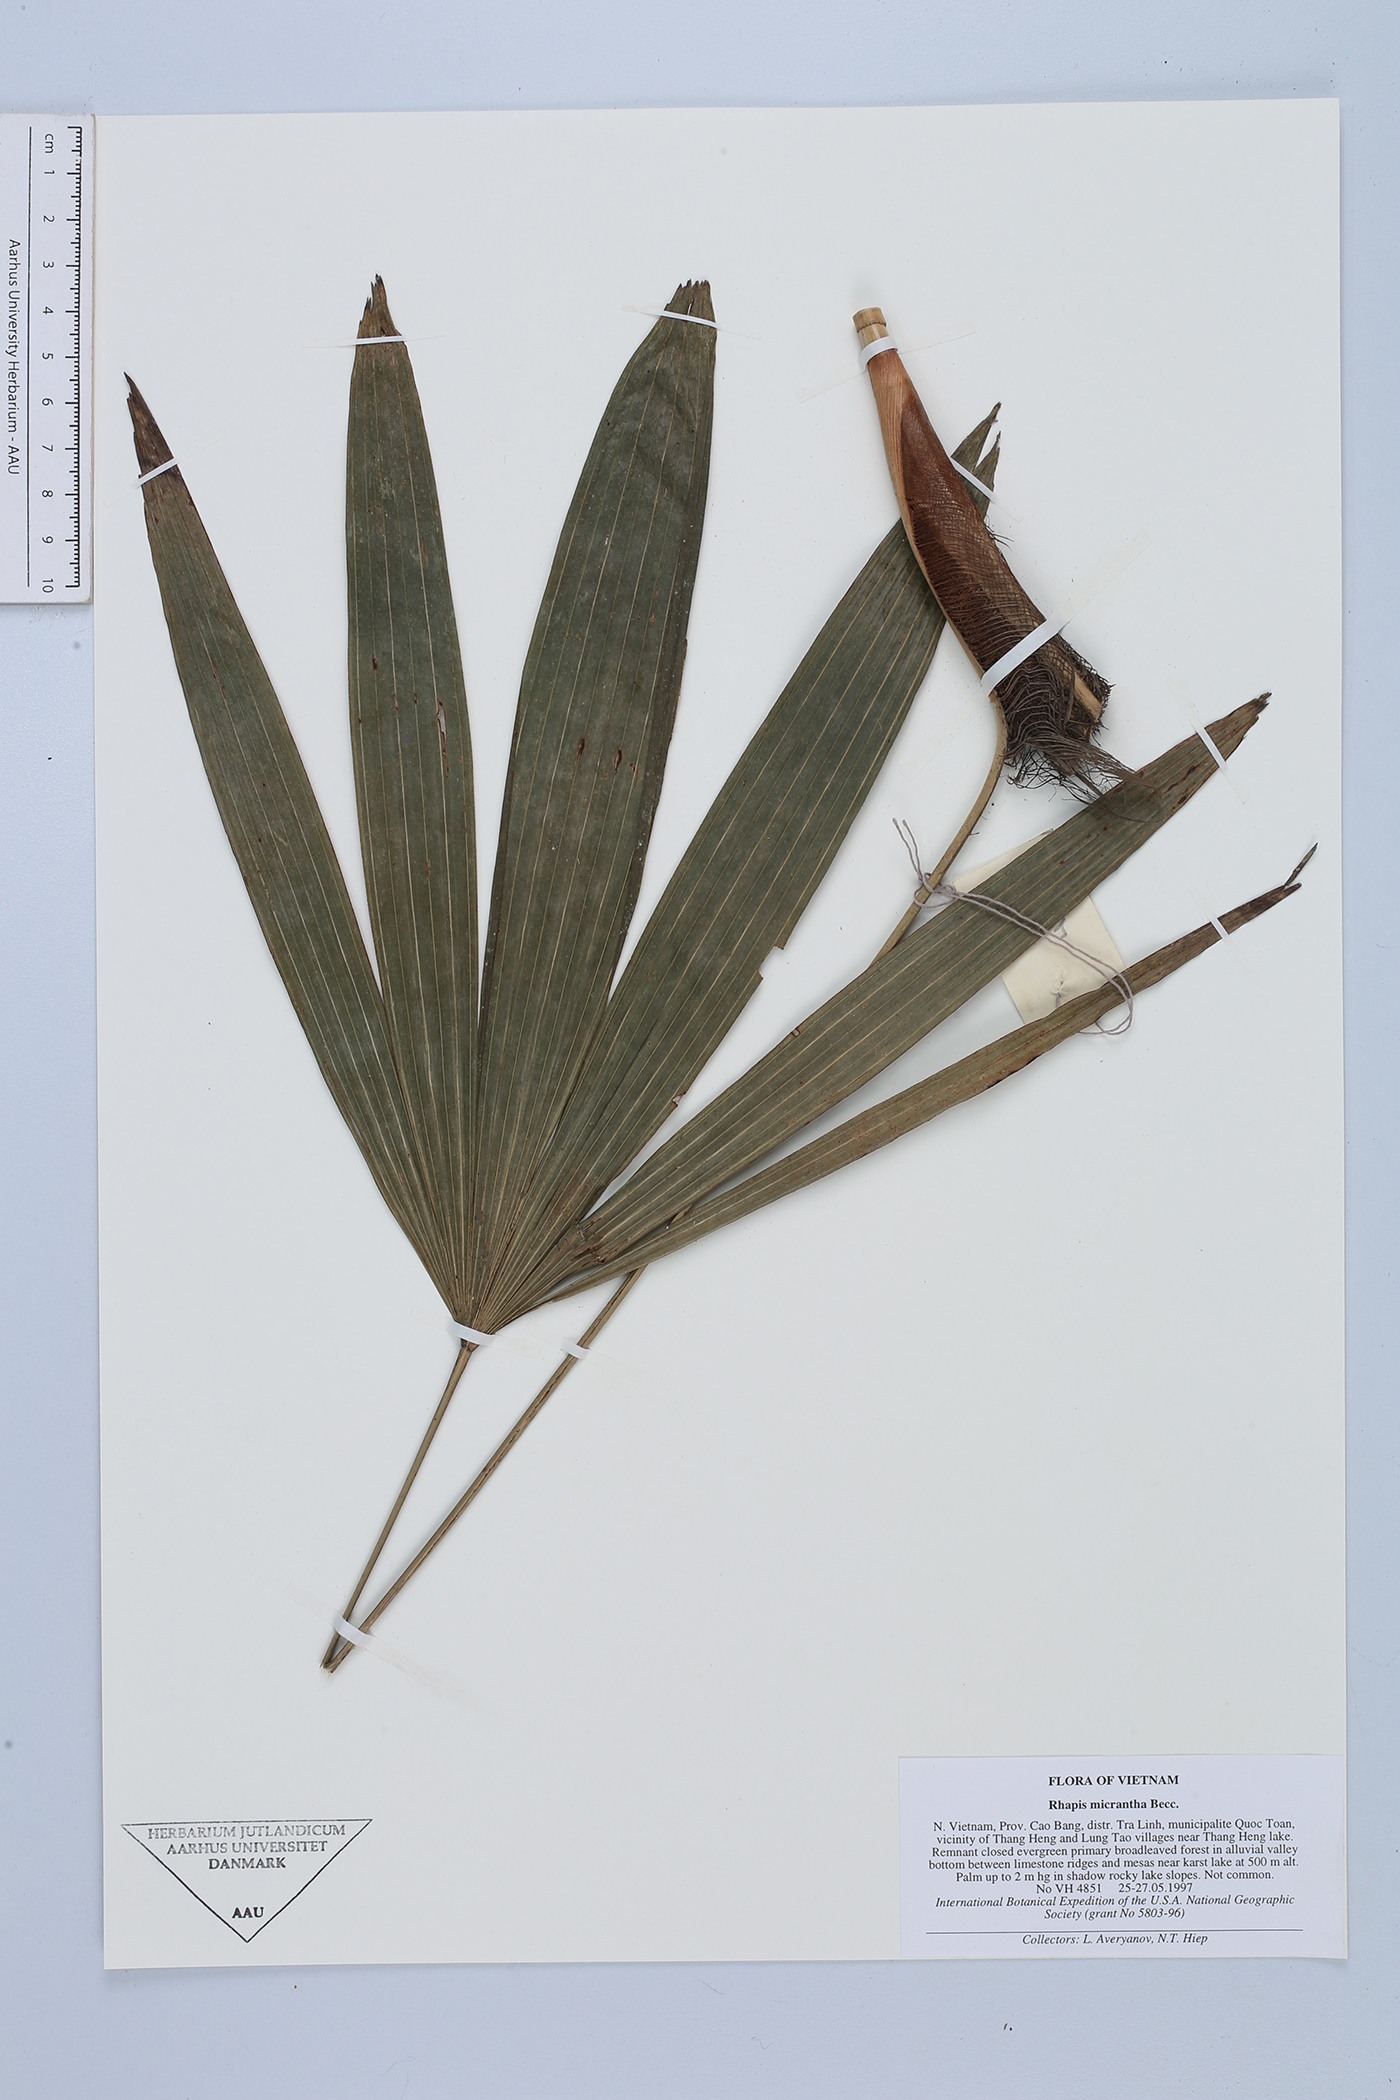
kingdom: Plantae
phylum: Tracheophyta
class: Liliopsida
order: Arecales
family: Arecaceae
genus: Rhapis
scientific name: Rhapis micrantha
